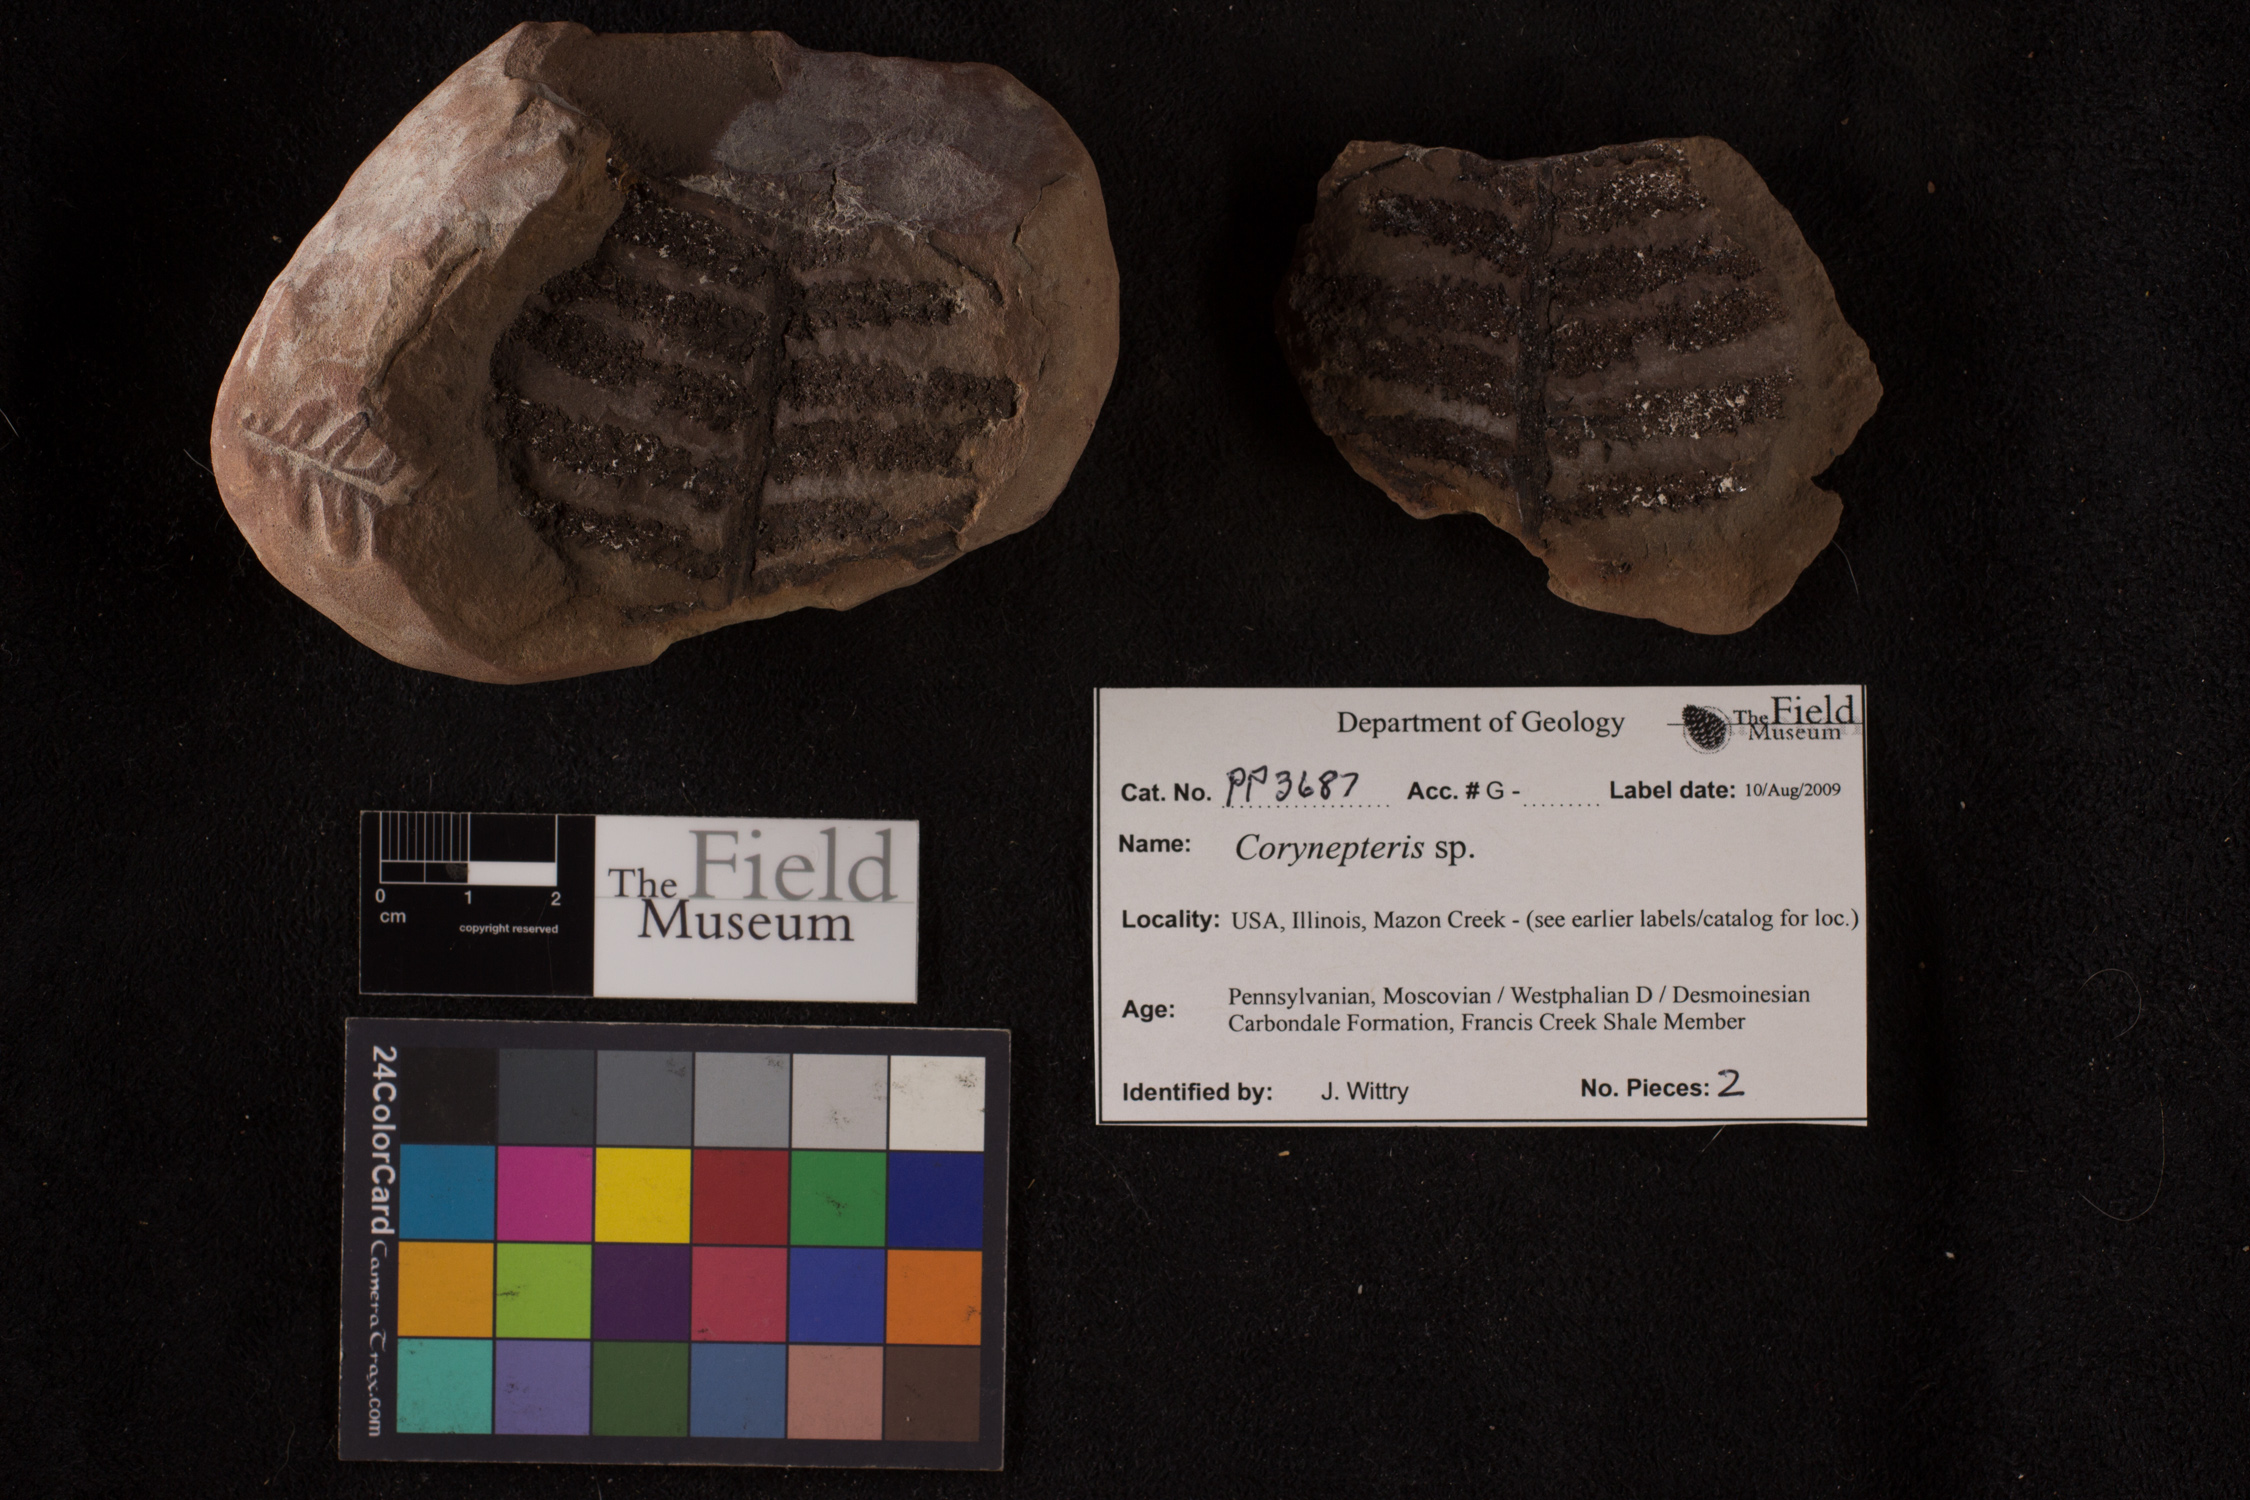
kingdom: Plantae
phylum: Tracheophyta
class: Polypodiopsida
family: Zygopteridaceae
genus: Corynepteris
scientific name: Corynepteris
